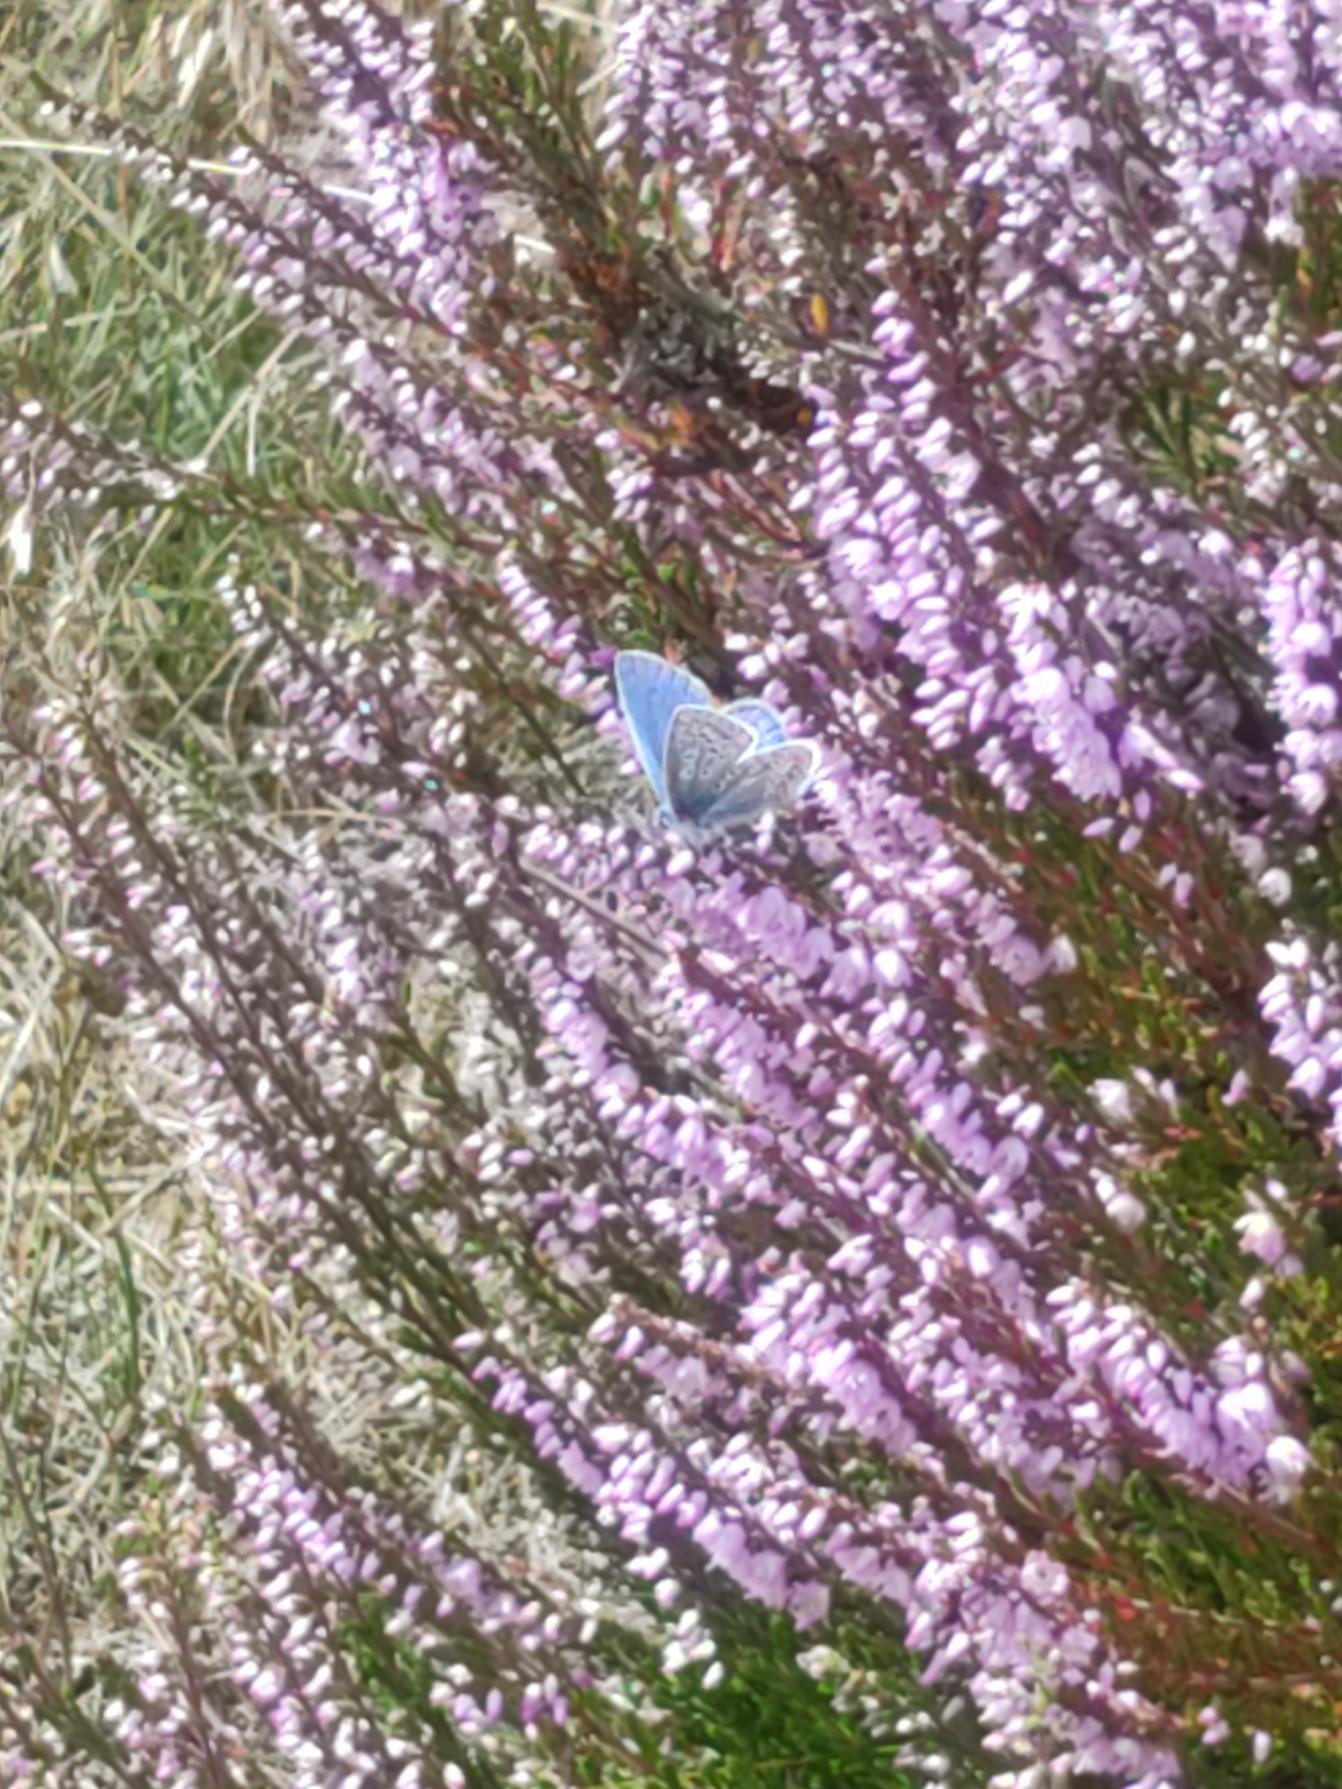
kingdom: Animalia
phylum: Arthropoda
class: Insecta
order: Lepidoptera
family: Lycaenidae
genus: Polyommatus
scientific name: Polyommatus icarus
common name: Almindelig blåfugl
